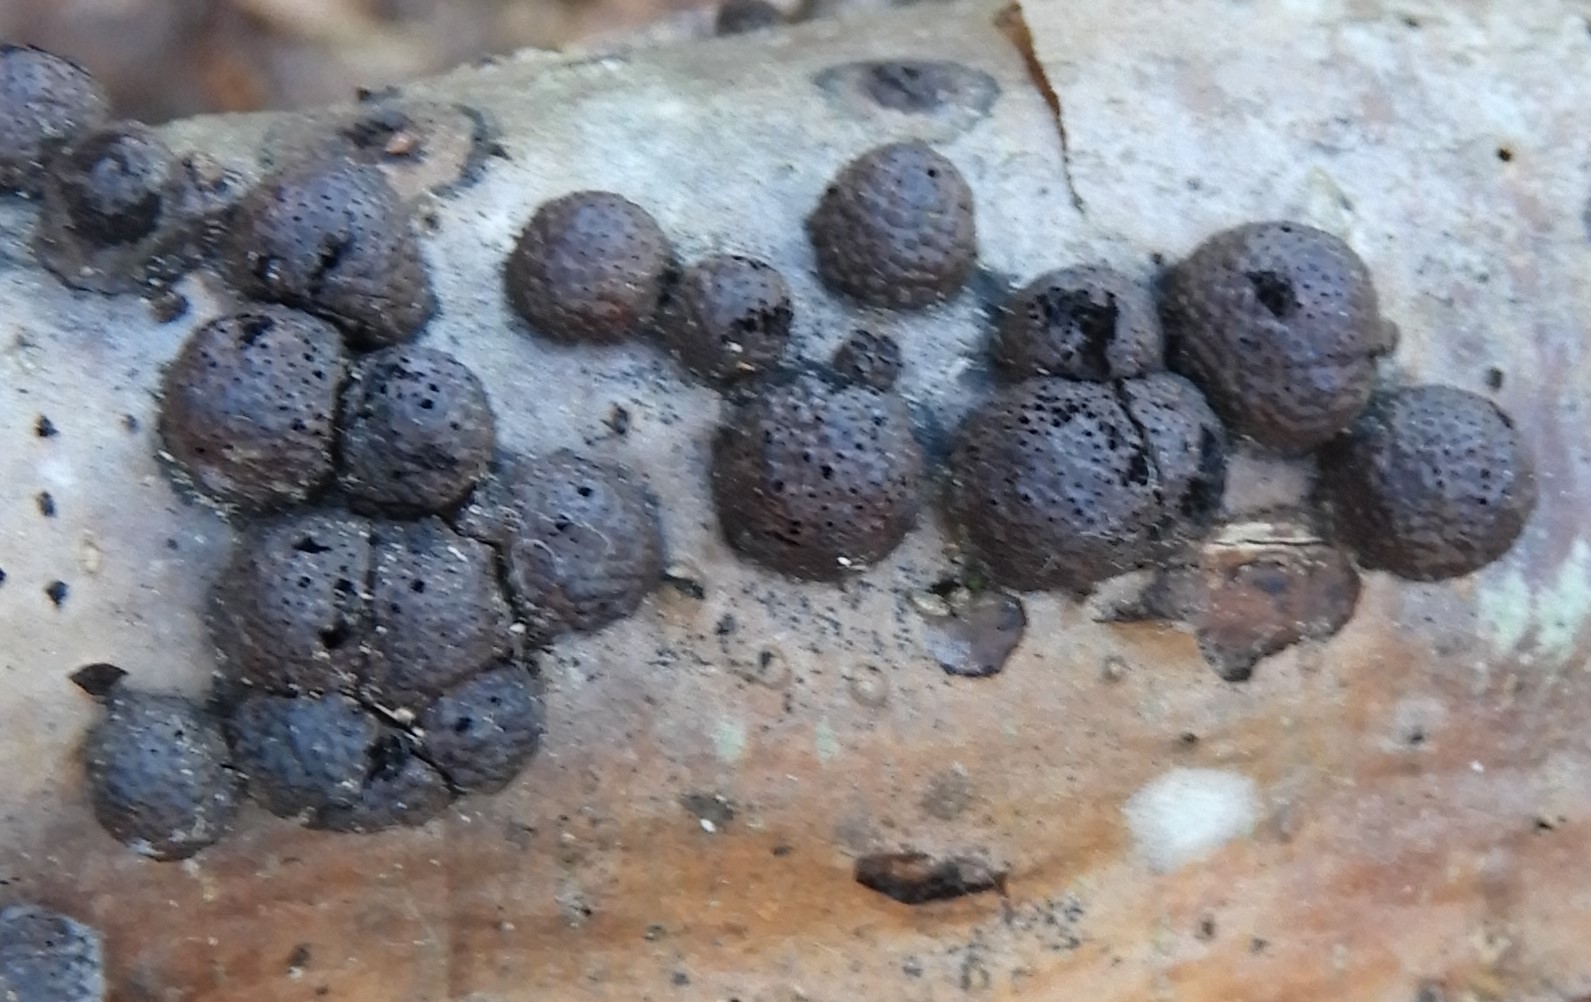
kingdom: Fungi
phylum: Ascomycota
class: Sordariomycetes
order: Xylariales
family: Hypoxylaceae
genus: Hypoxylon
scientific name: Hypoxylon howeanum
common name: halvkugleformet kulbær
